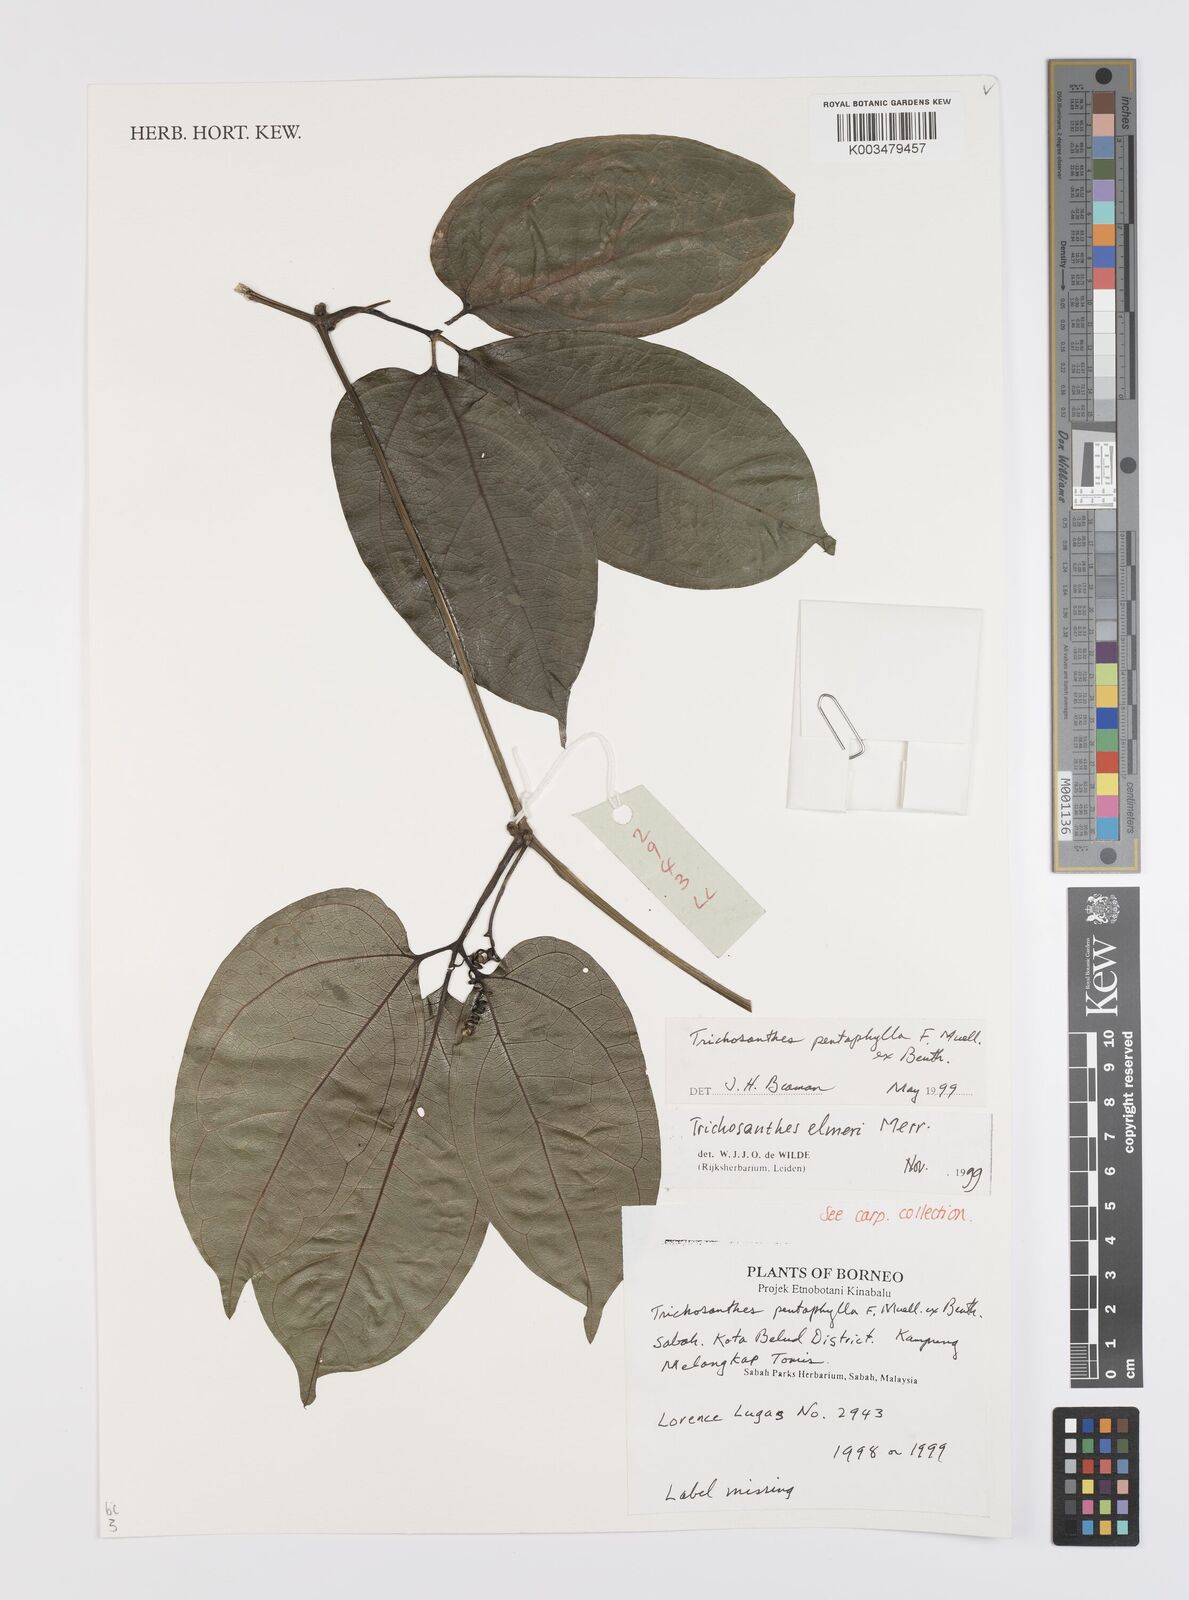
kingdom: Plantae
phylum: Tracheophyta
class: Magnoliopsida
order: Cucurbitales
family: Cucurbitaceae
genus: Trichosanthes
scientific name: Trichosanthes elmeri
